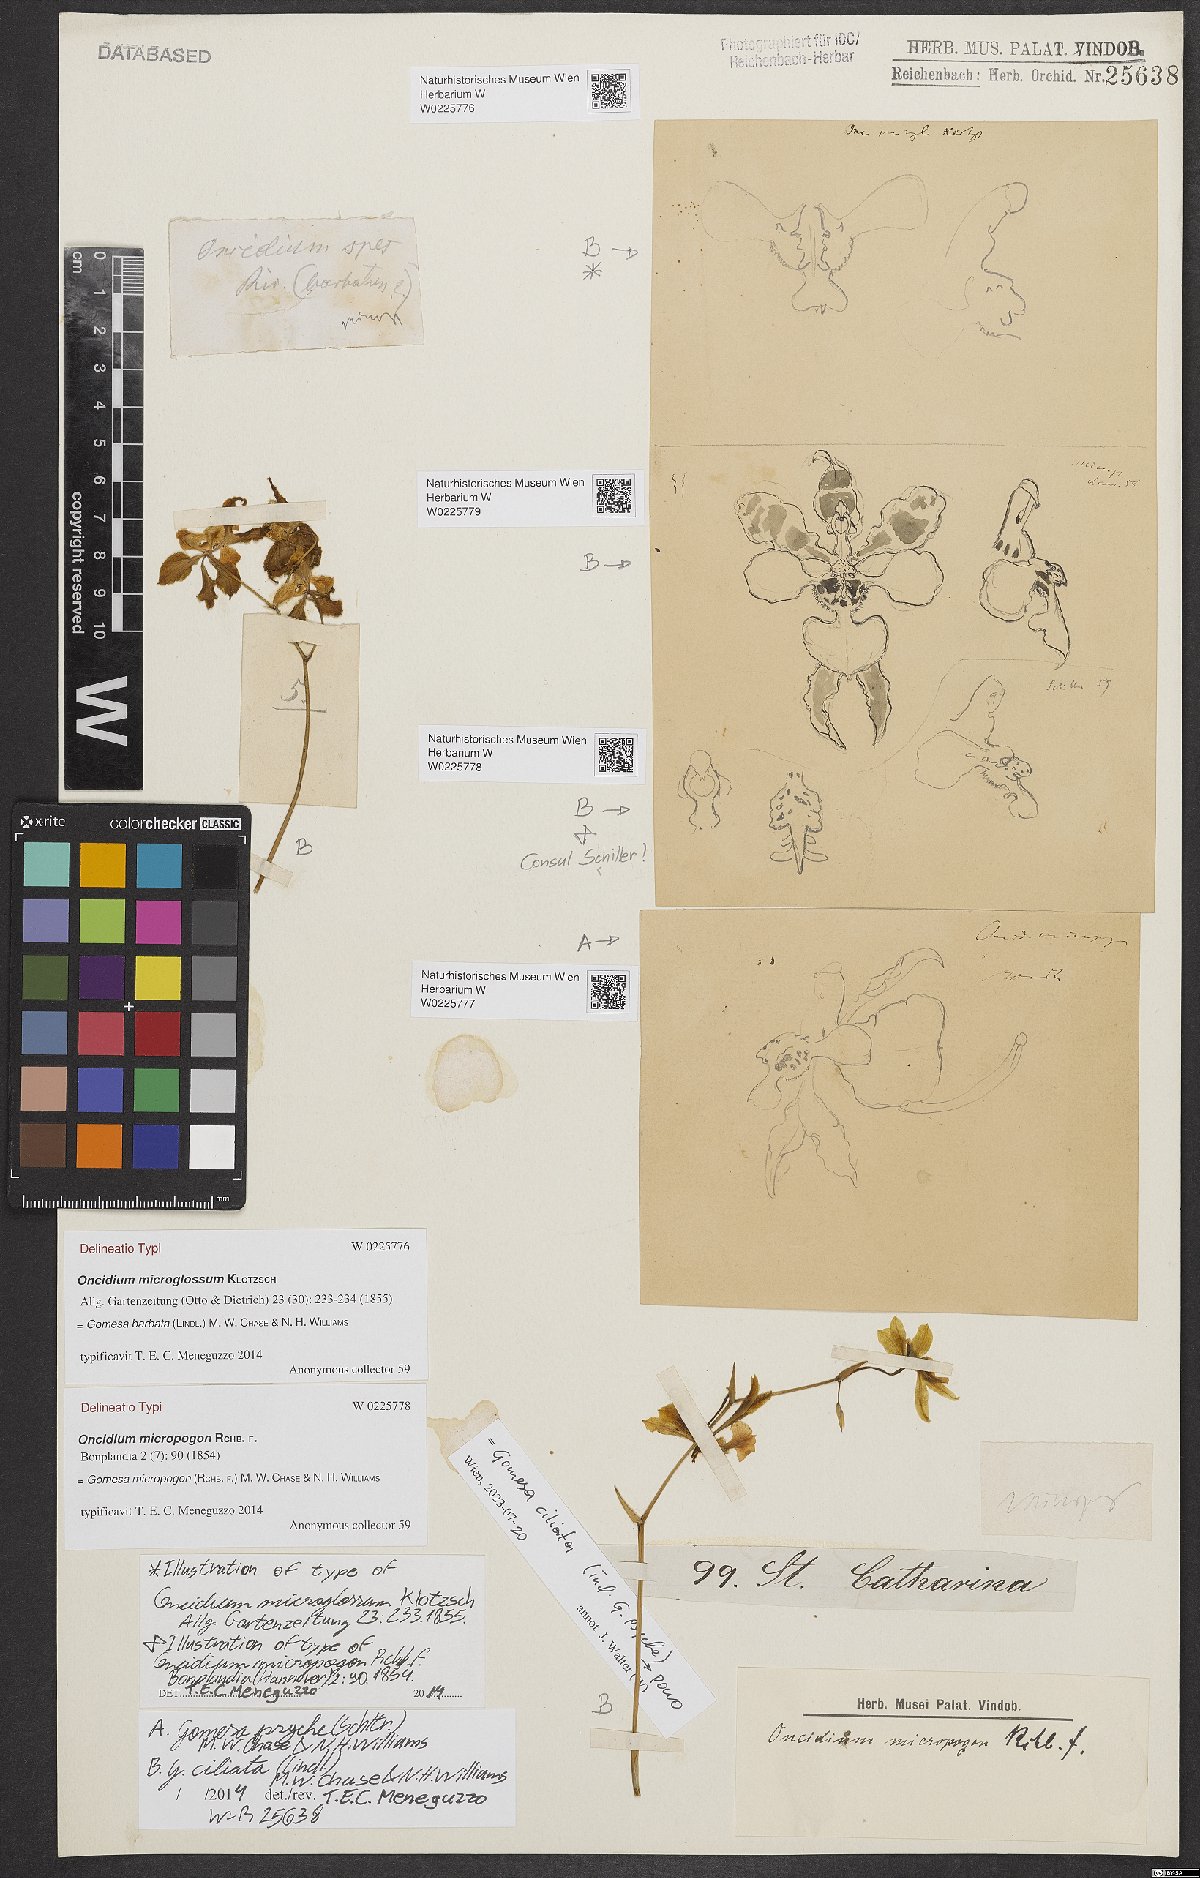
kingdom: Plantae
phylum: Tracheophyta
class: Liliopsida
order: Asparagales
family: Orchidaceae
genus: Gomesa
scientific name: Gomesa ciliata
